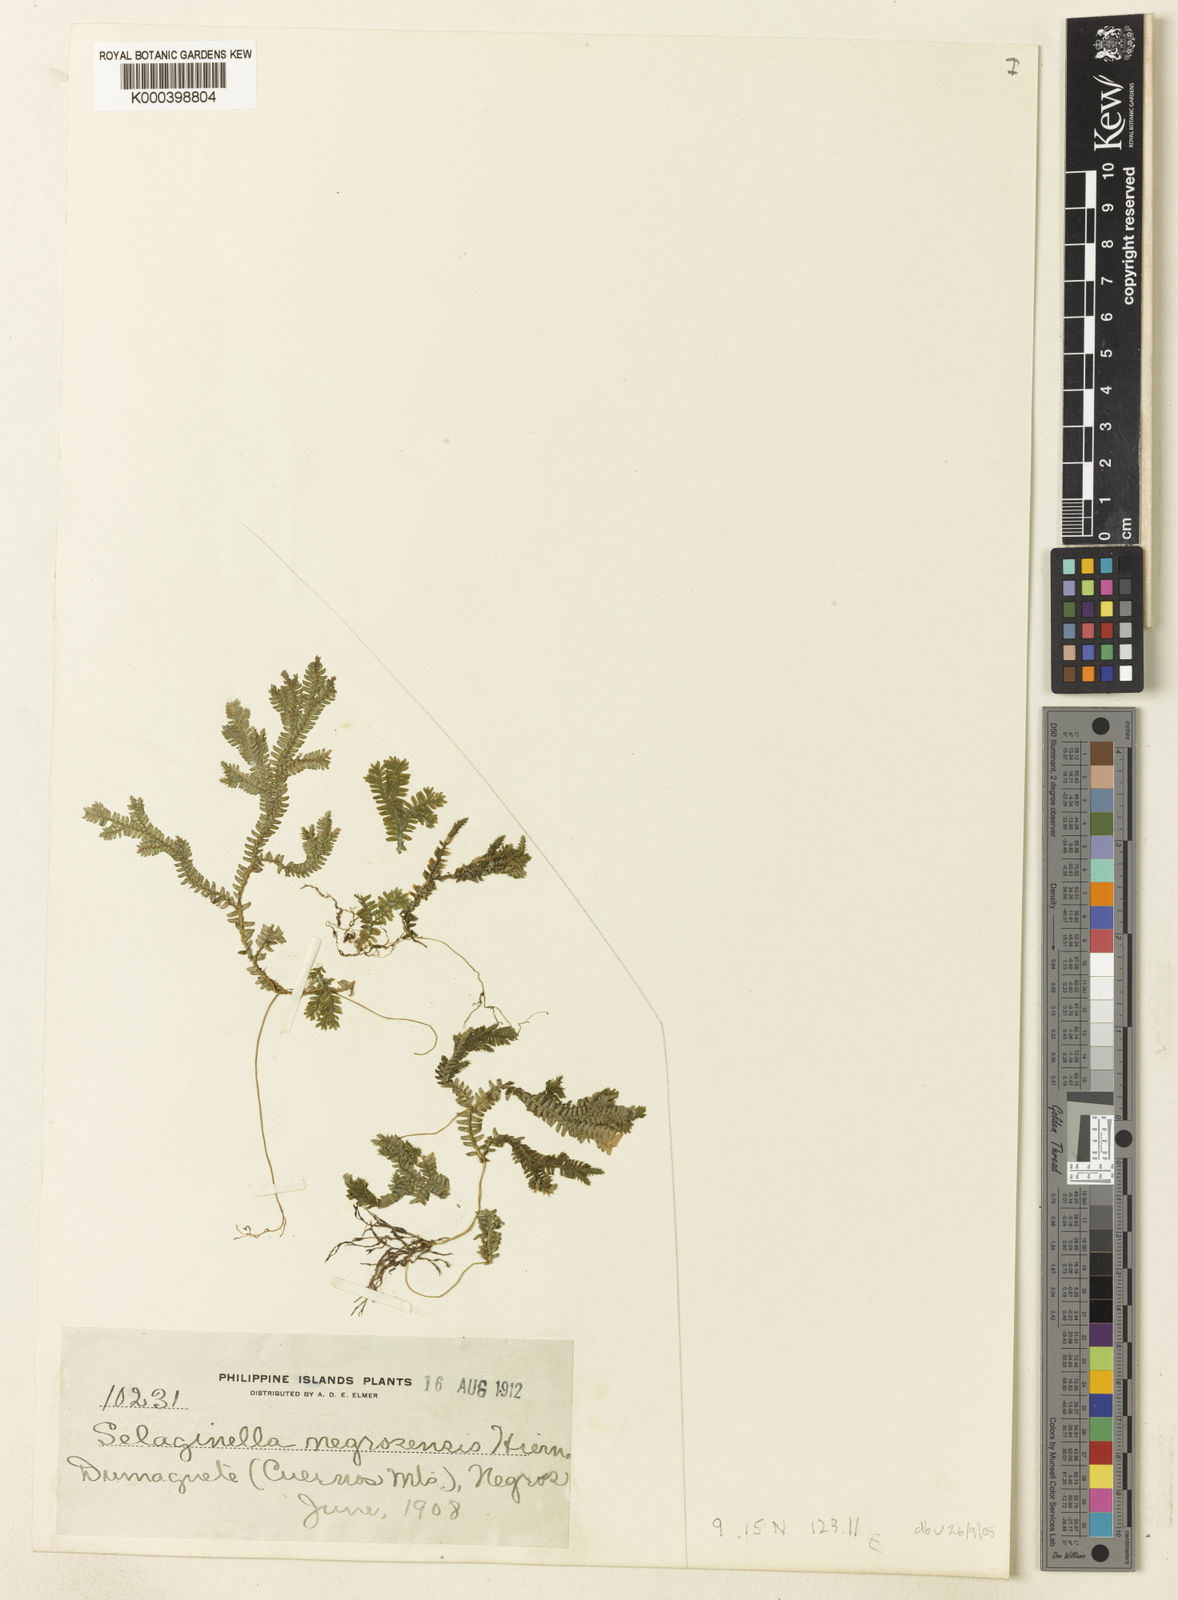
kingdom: Plantae
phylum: Tracheophyta
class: Lycopodiopsida
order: Selaginellales
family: Selaginellaceae
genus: Selaginella
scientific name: Selaginella negrosensis
